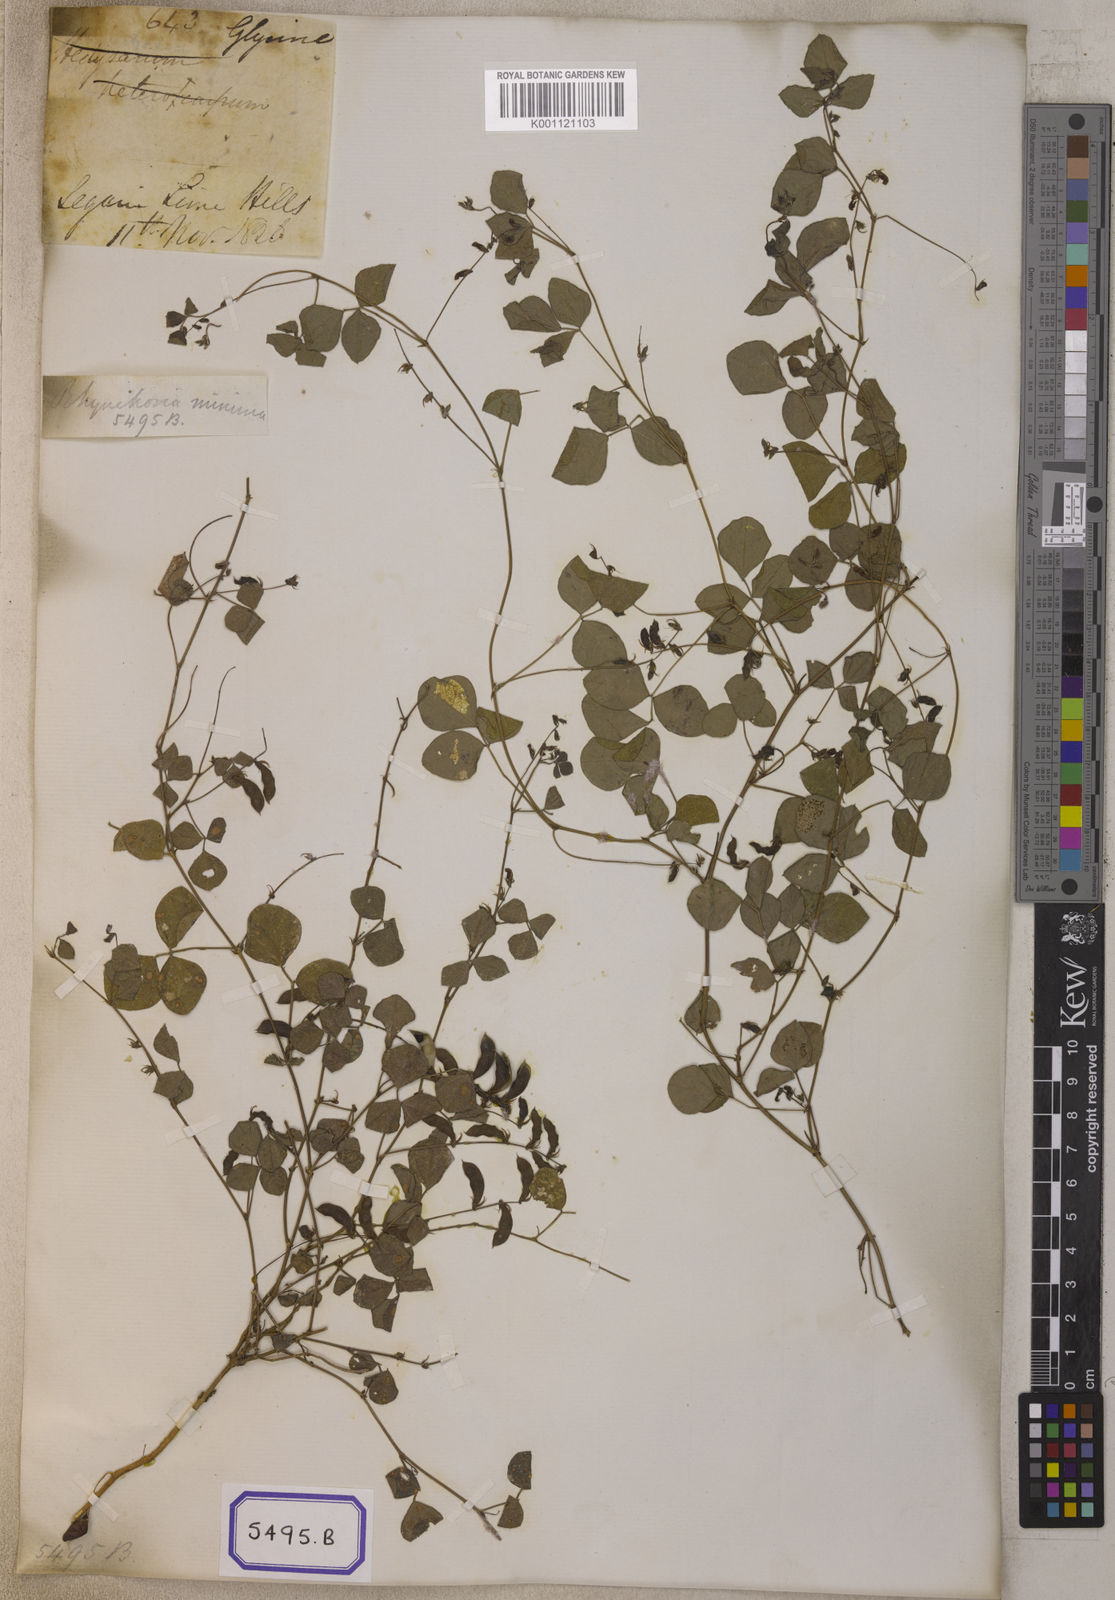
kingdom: Plantae
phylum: Tracheophyta
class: Magnoliopsida
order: Fabales
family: Fabaceae
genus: Rhynchosia
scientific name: Rhynchosia minima
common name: Least snoutbean
